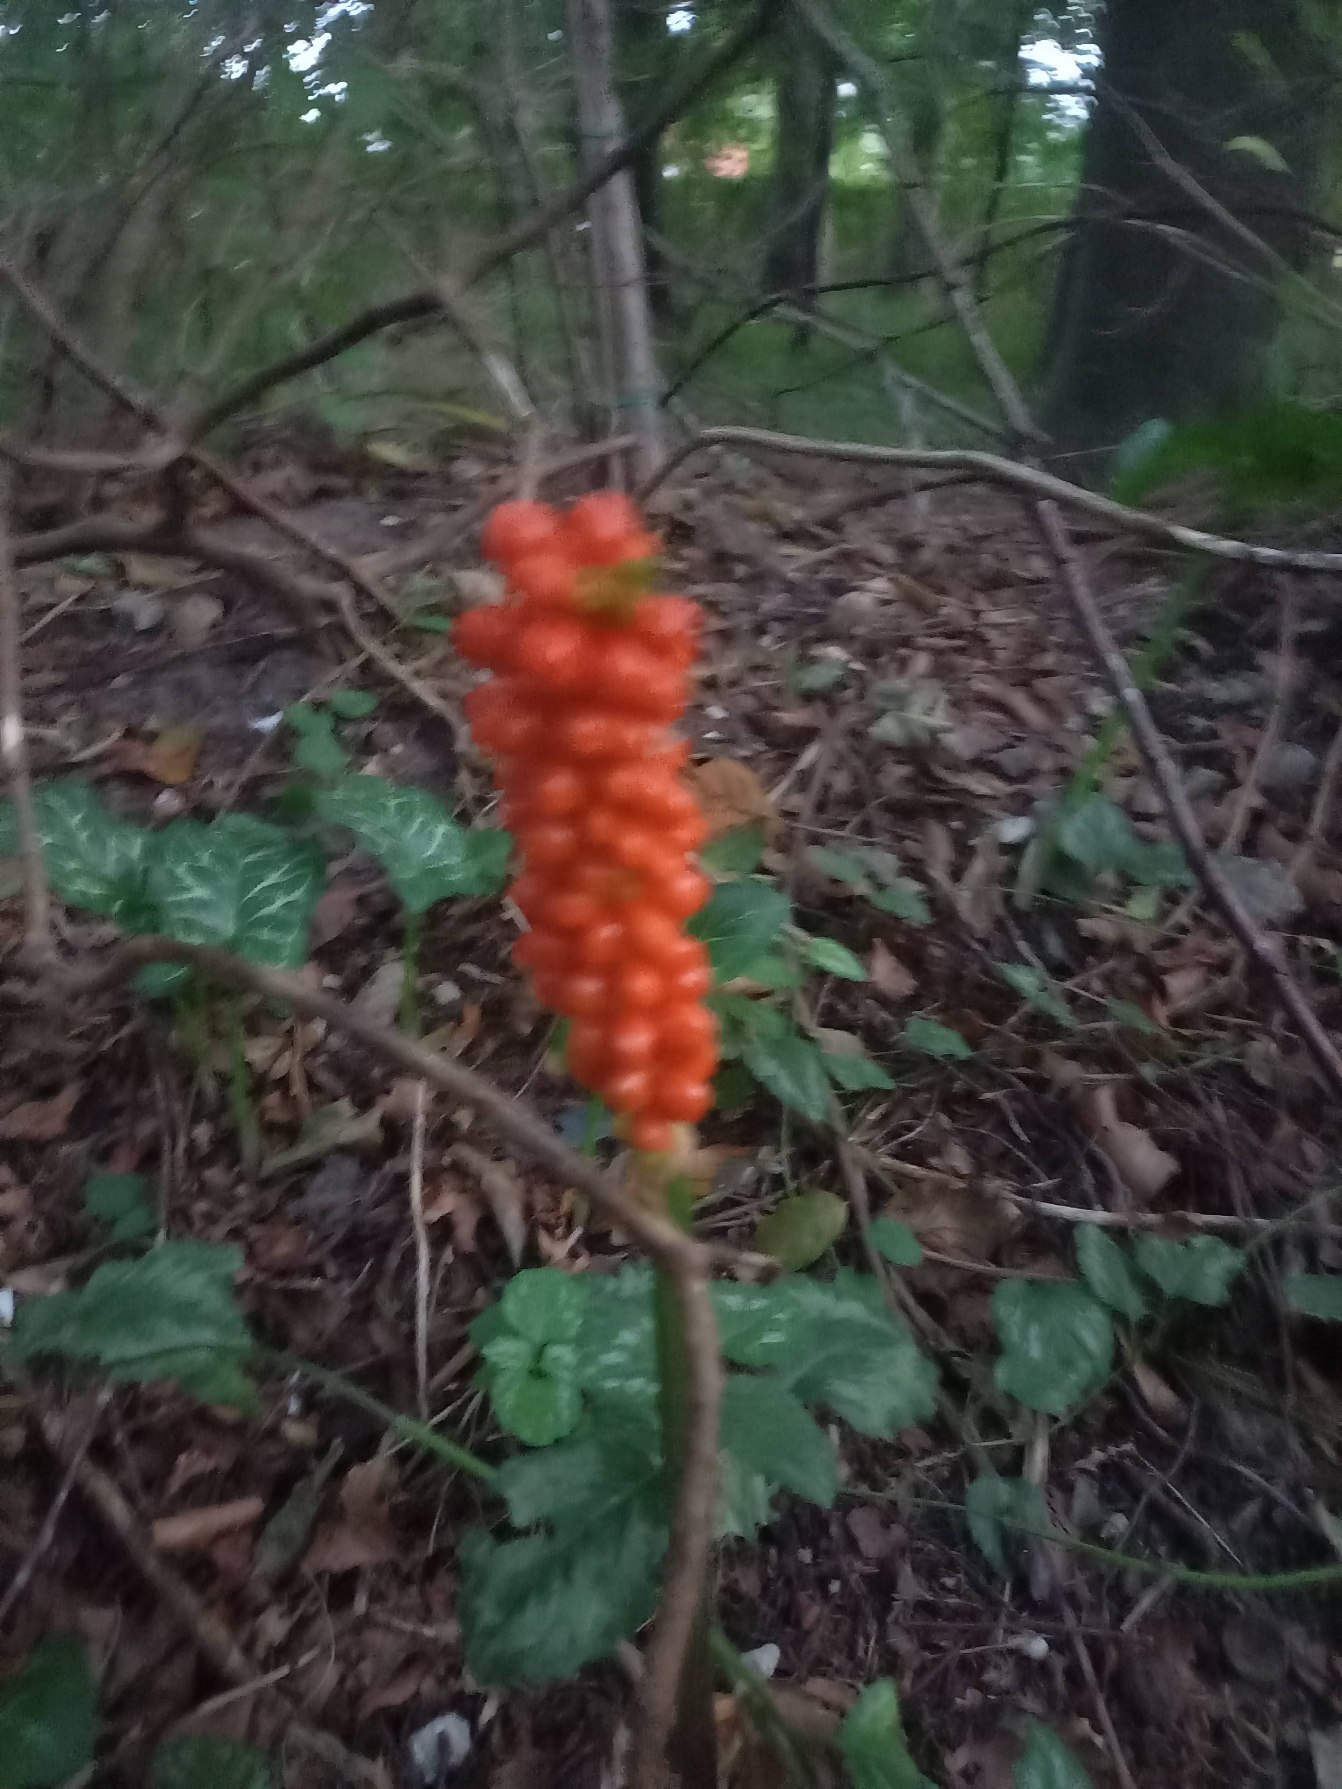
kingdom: Plantae
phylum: Tracheophyta
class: Liliopsida
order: Alismatales
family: Araceae
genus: Arum
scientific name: Arum
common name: Arumslægten
